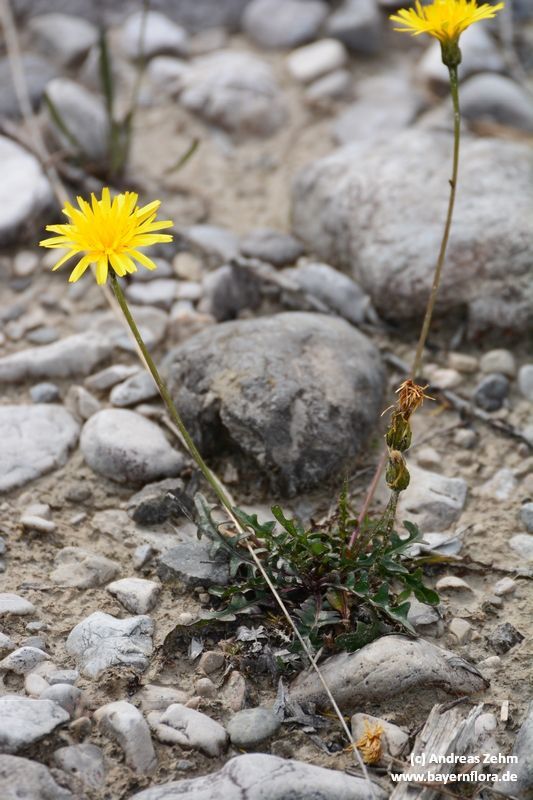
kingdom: Plantae
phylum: Tracheophyta
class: Magnoliopsida
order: Asterales
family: Asteraceae
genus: Leontodon
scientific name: Leontodon hyoseroides
